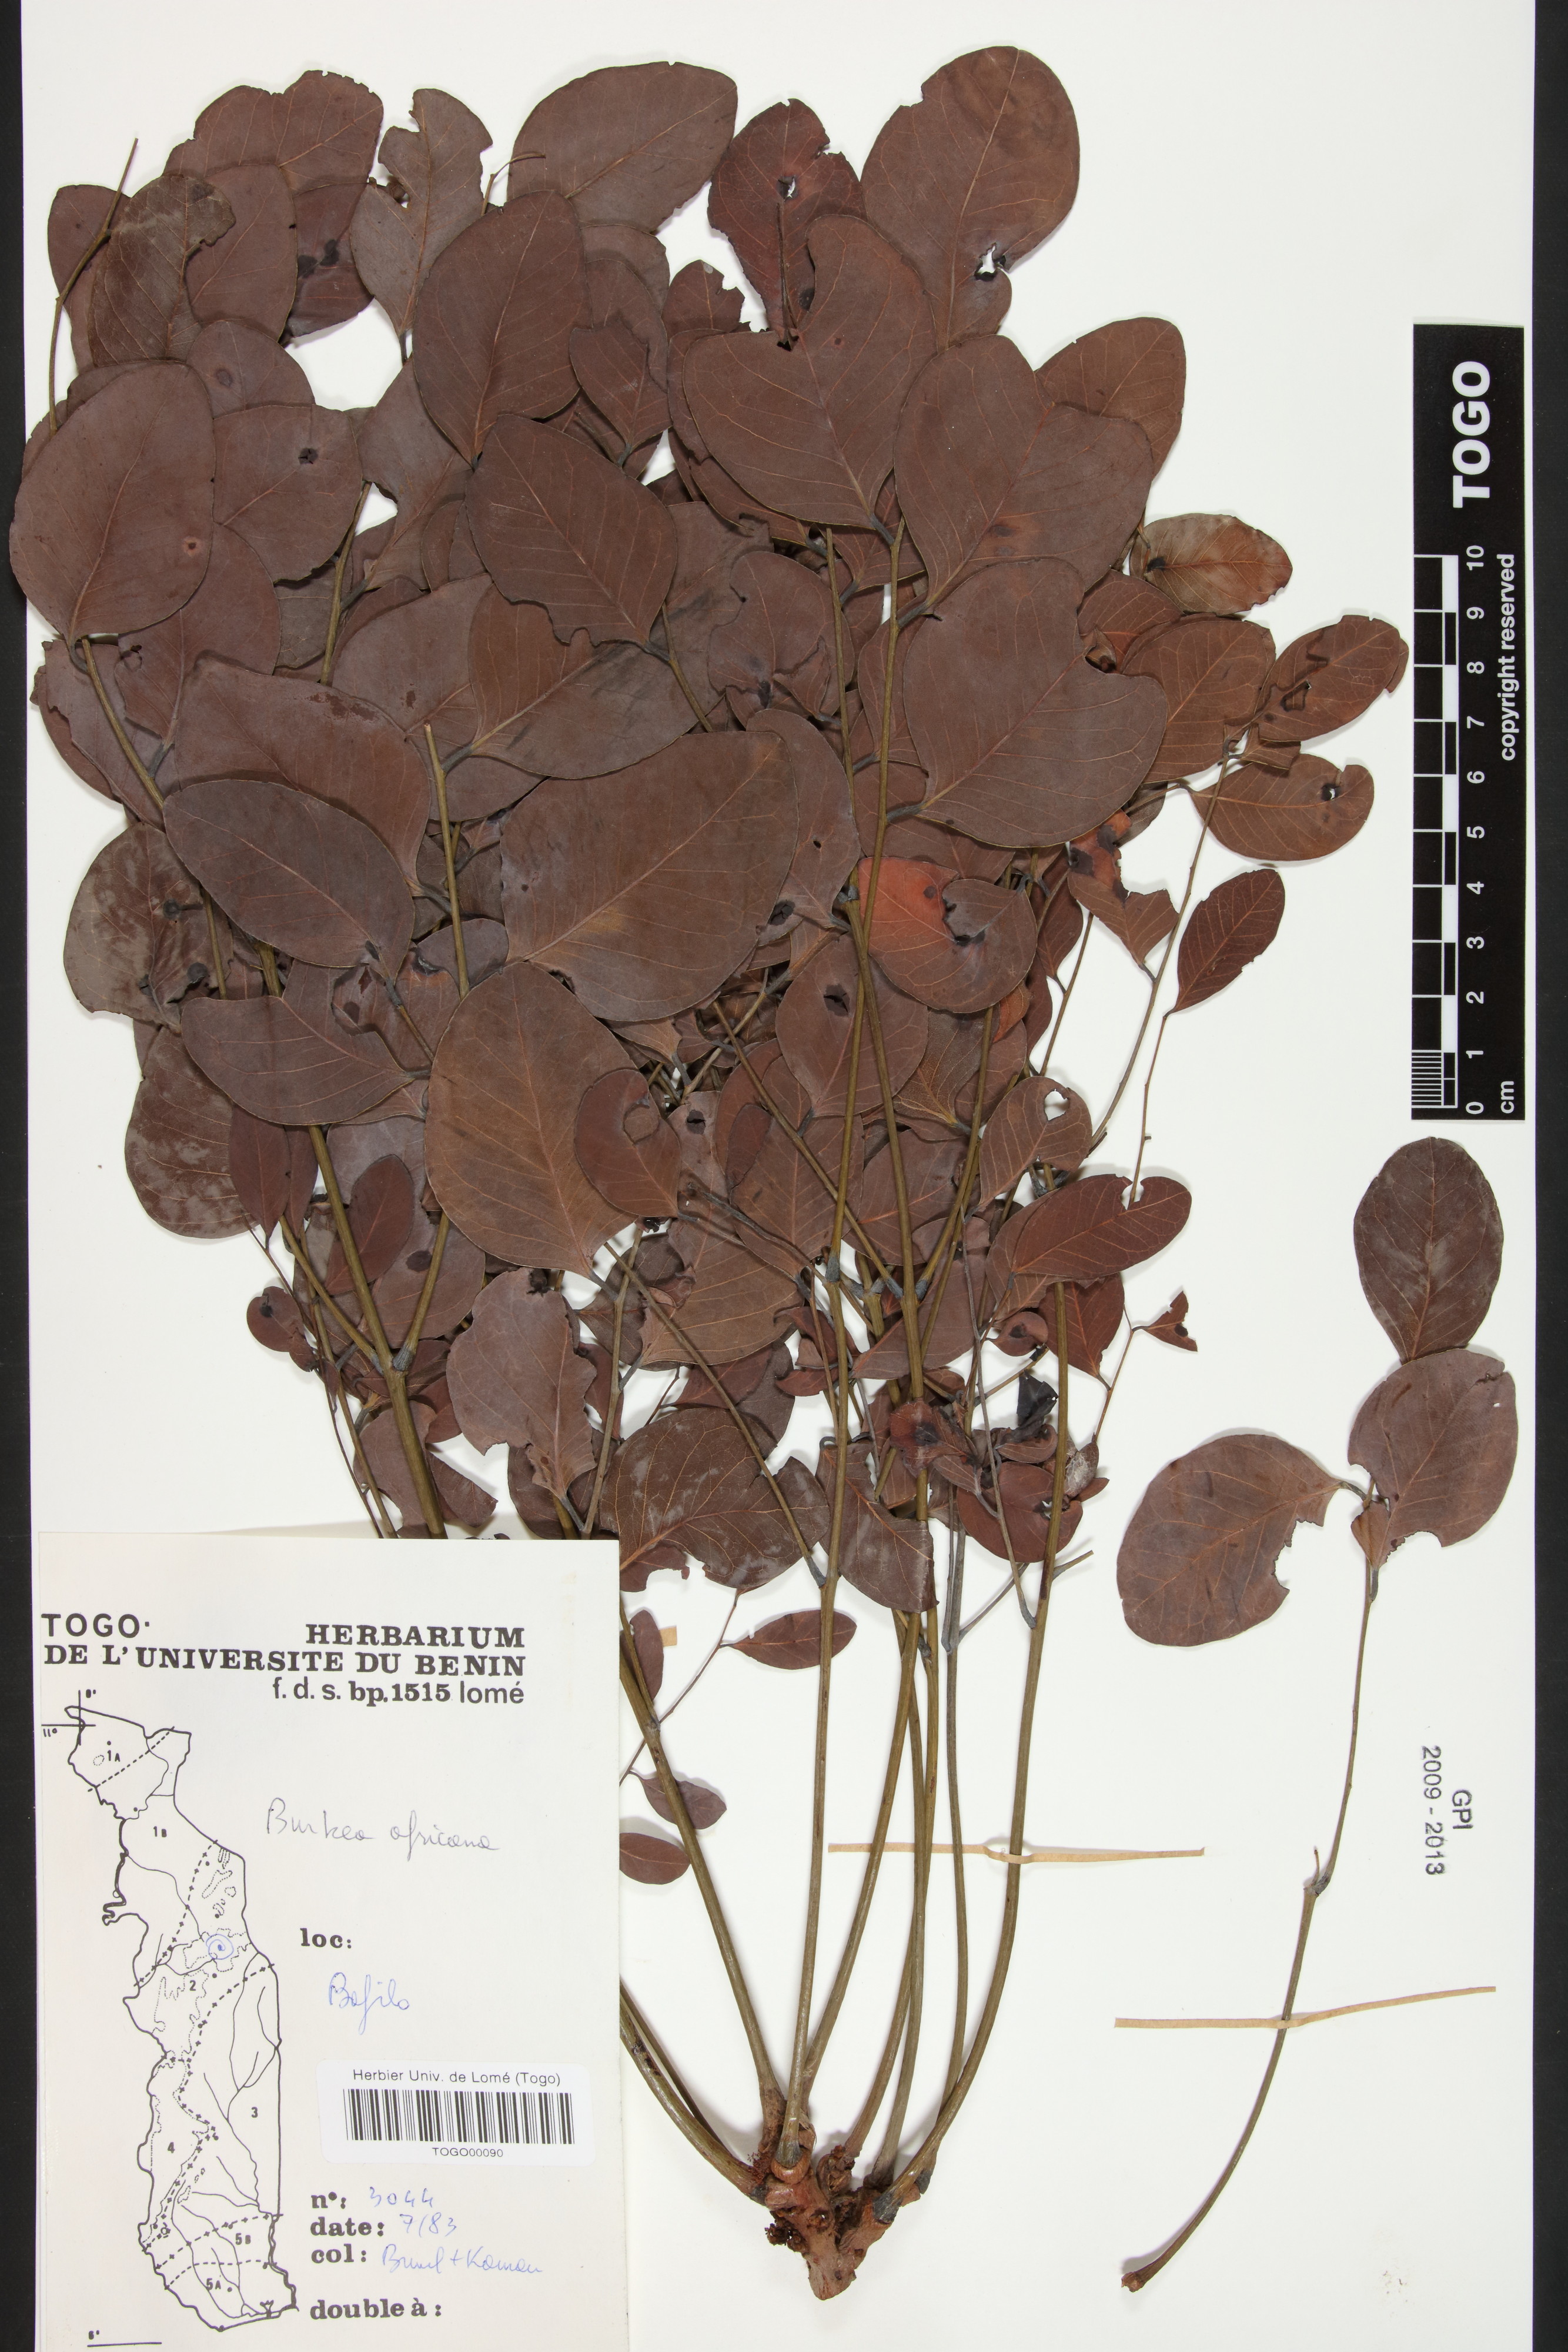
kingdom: Plantae
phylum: Tracheophyta
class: Magnoliopsida
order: Fabales
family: Fabaceae
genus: Burkea
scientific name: Burkea africana
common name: Mkalati tree
